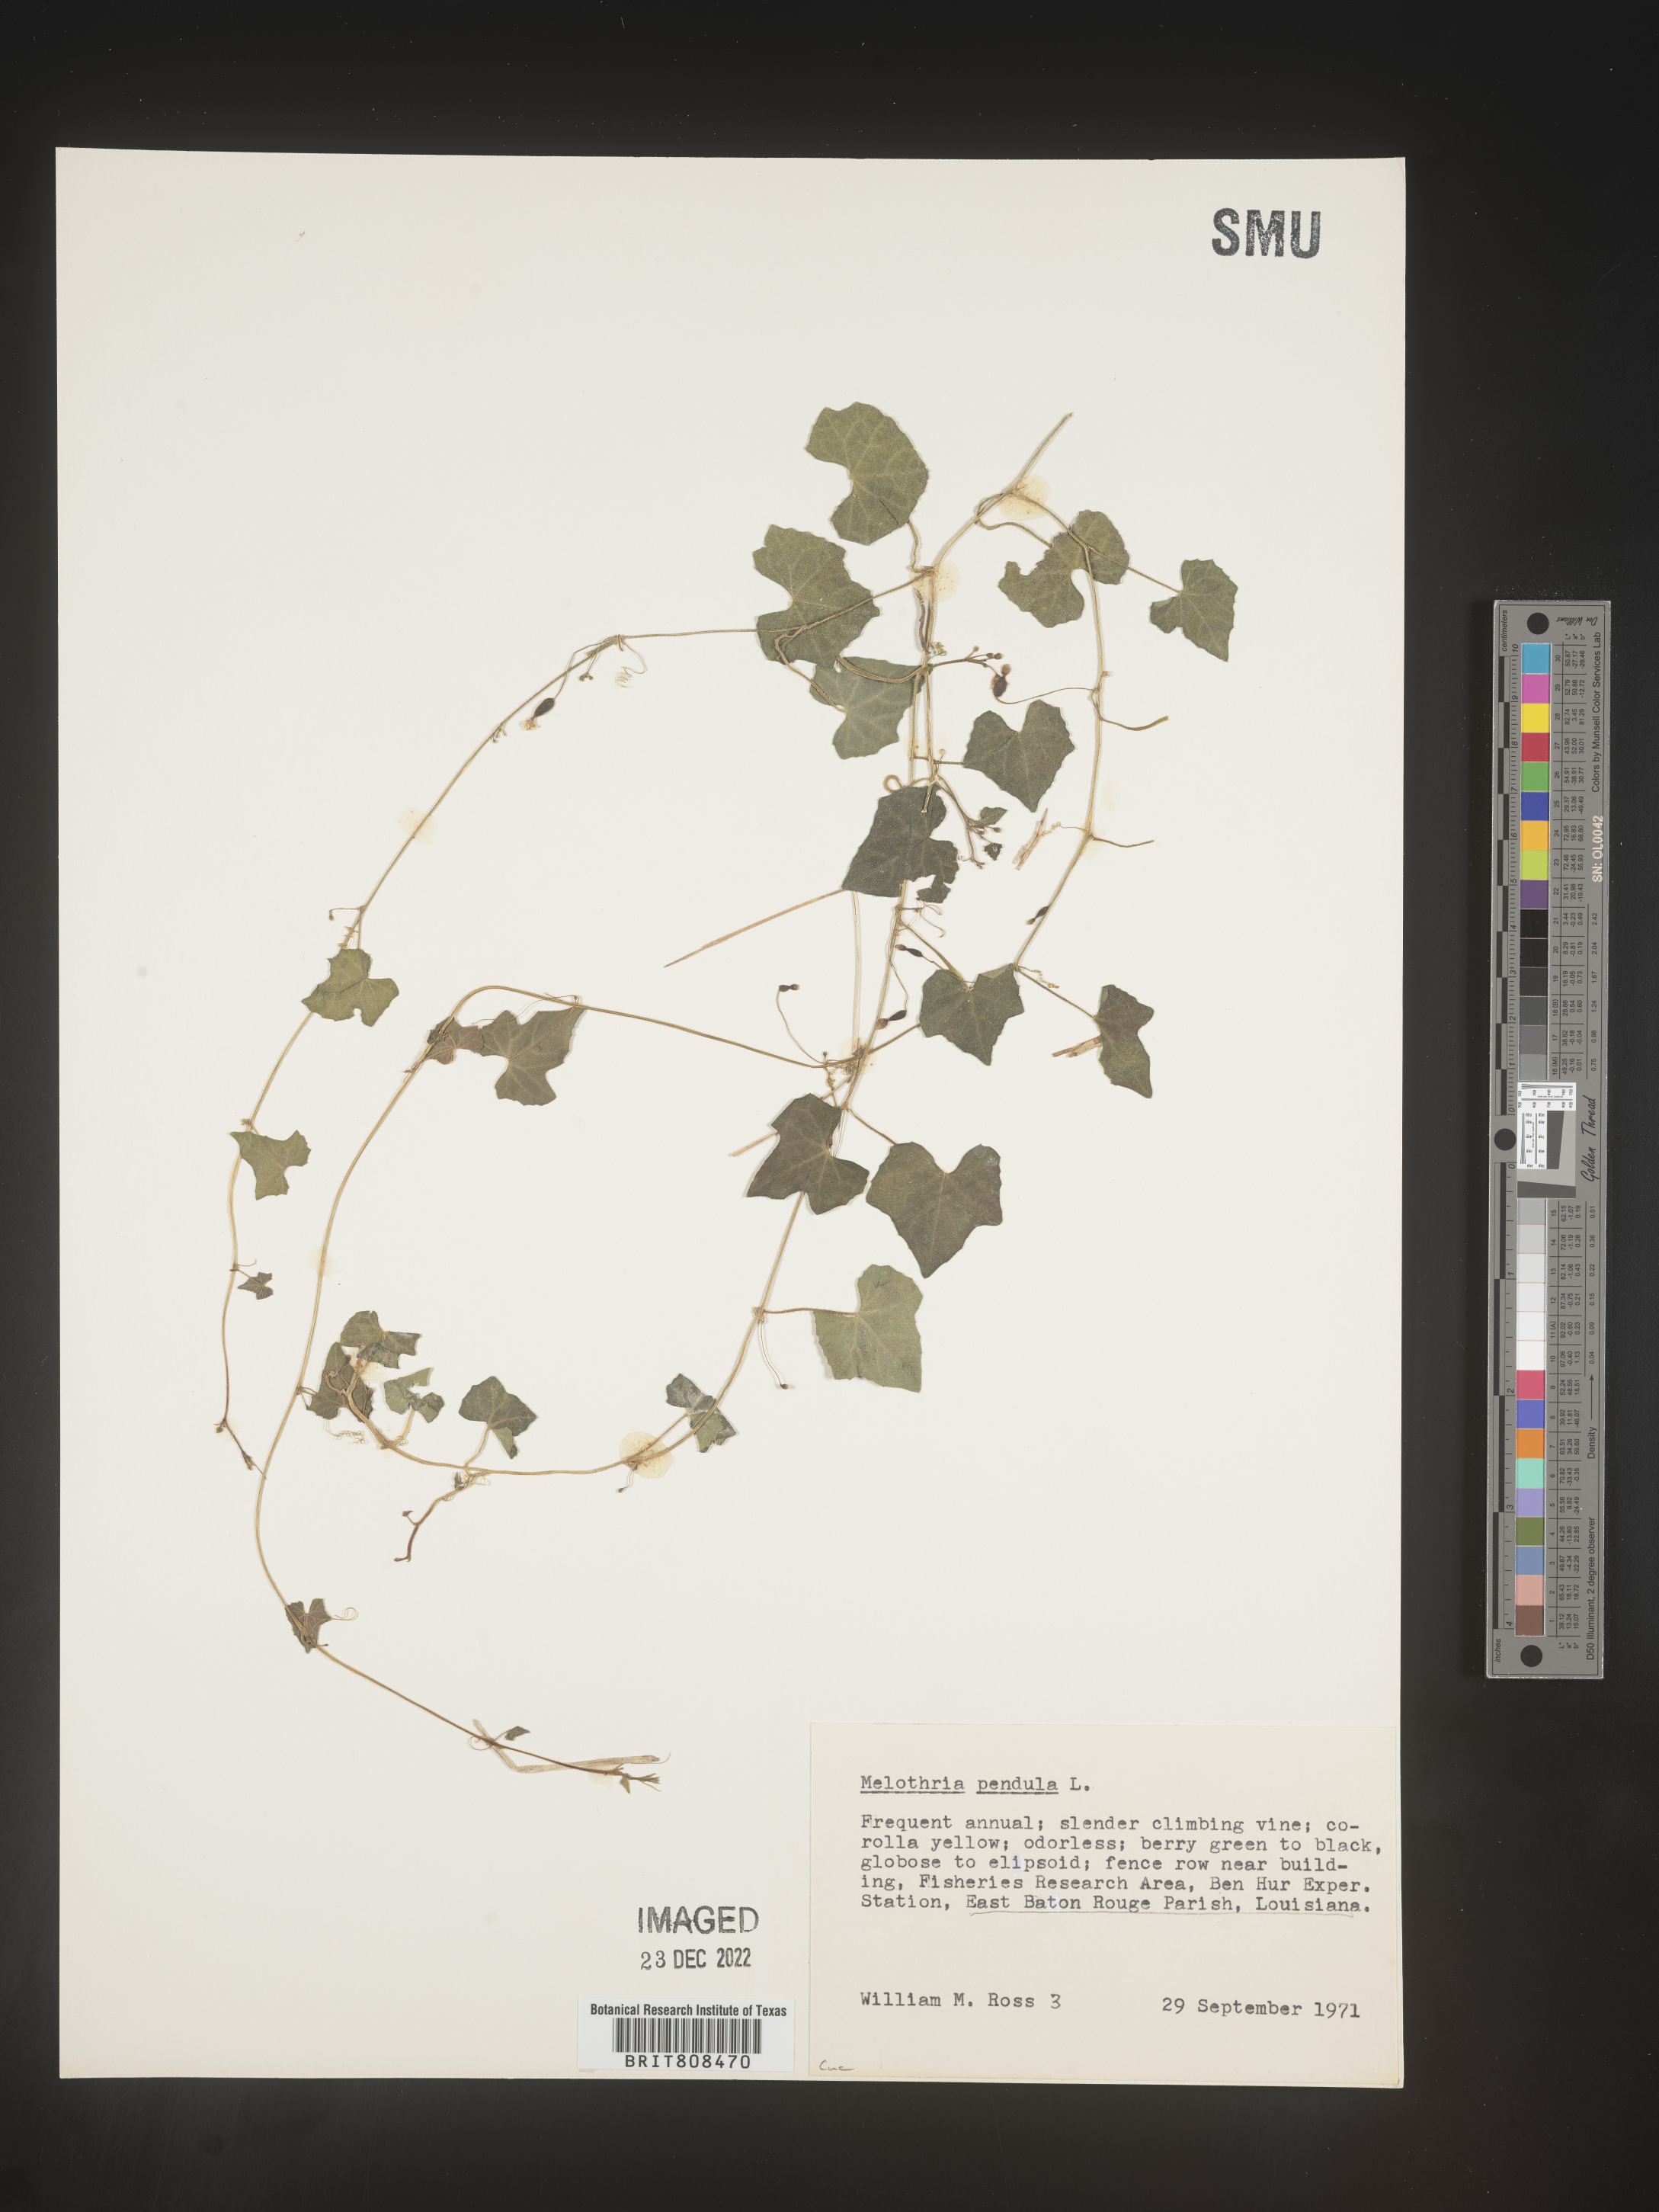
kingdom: Plantae
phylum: Tracheophyta
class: Magnoliopsida
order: Cucurbitales
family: Cucurbitaceae
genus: Melothria
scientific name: Melothria pendula
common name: Creeping-cucumber
